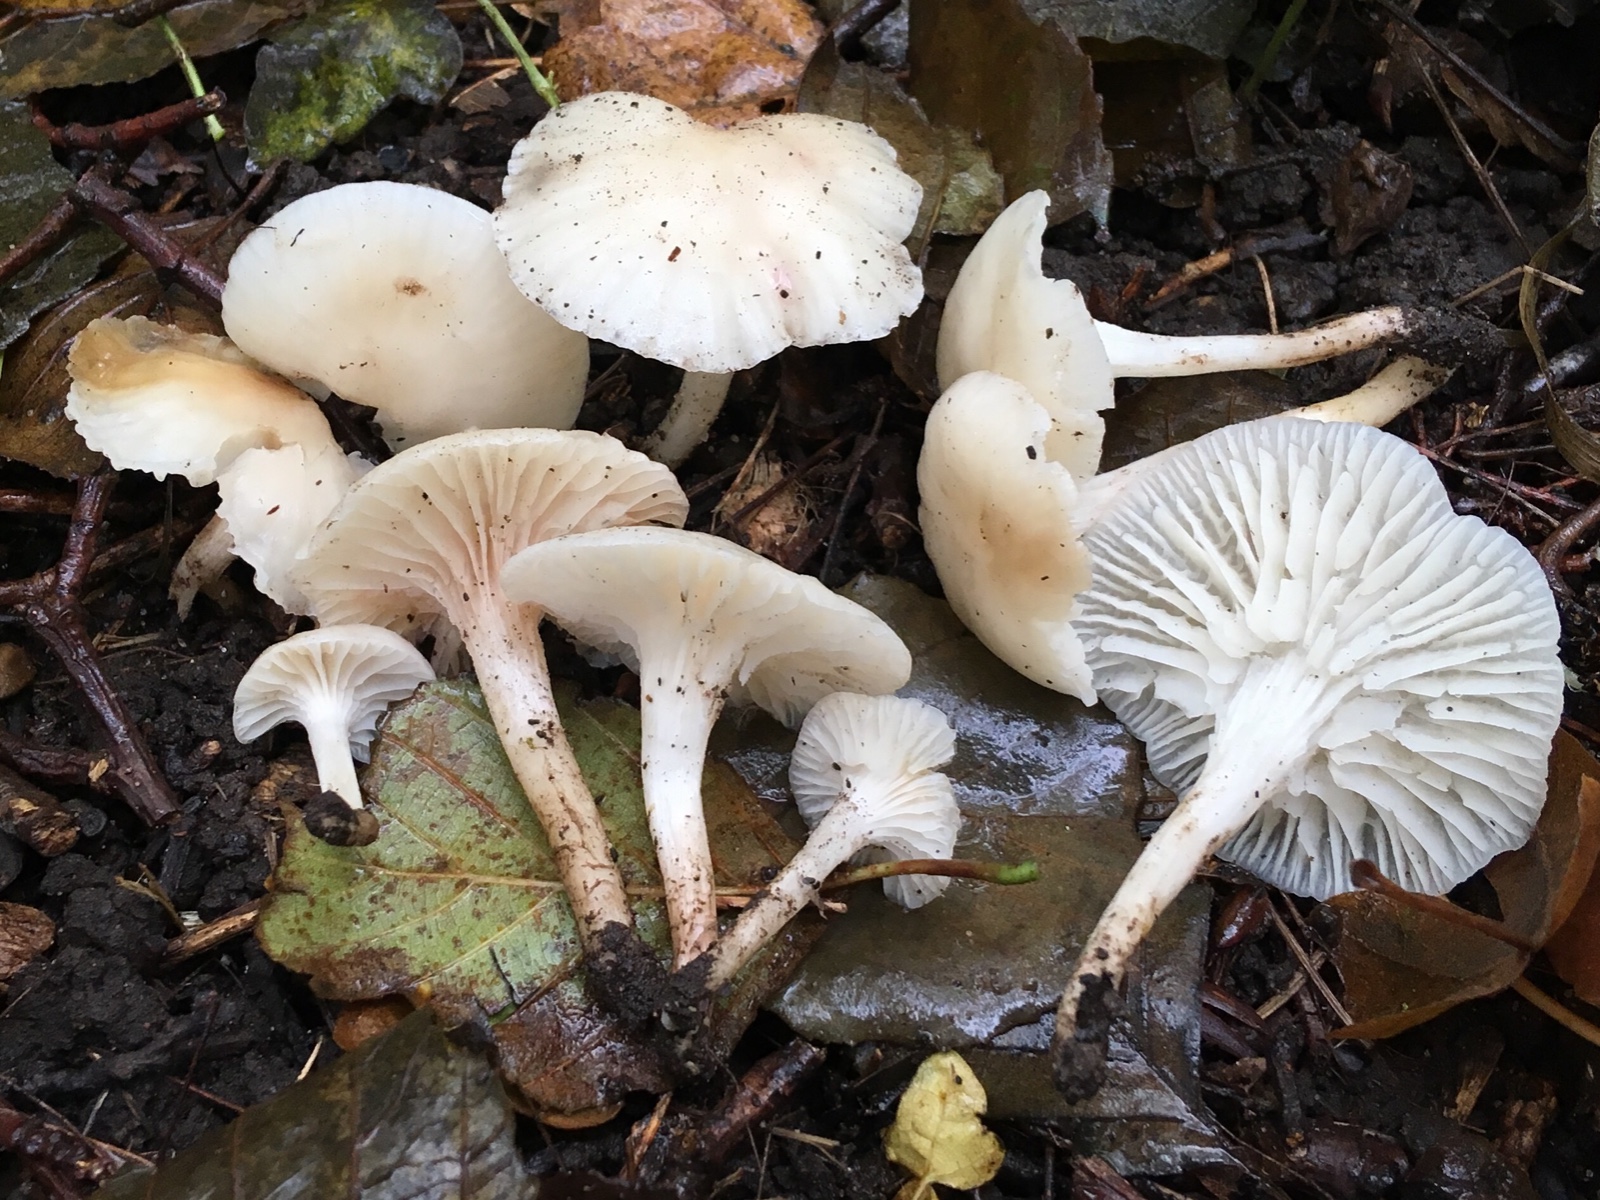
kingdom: Fungi
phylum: Basidiomycota
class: Agaricomycetes
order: Agaricales
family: Hygrophoraceae
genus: Cuphophyllus
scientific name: Cuphophyllus virgineus
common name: snehvid vokshat
